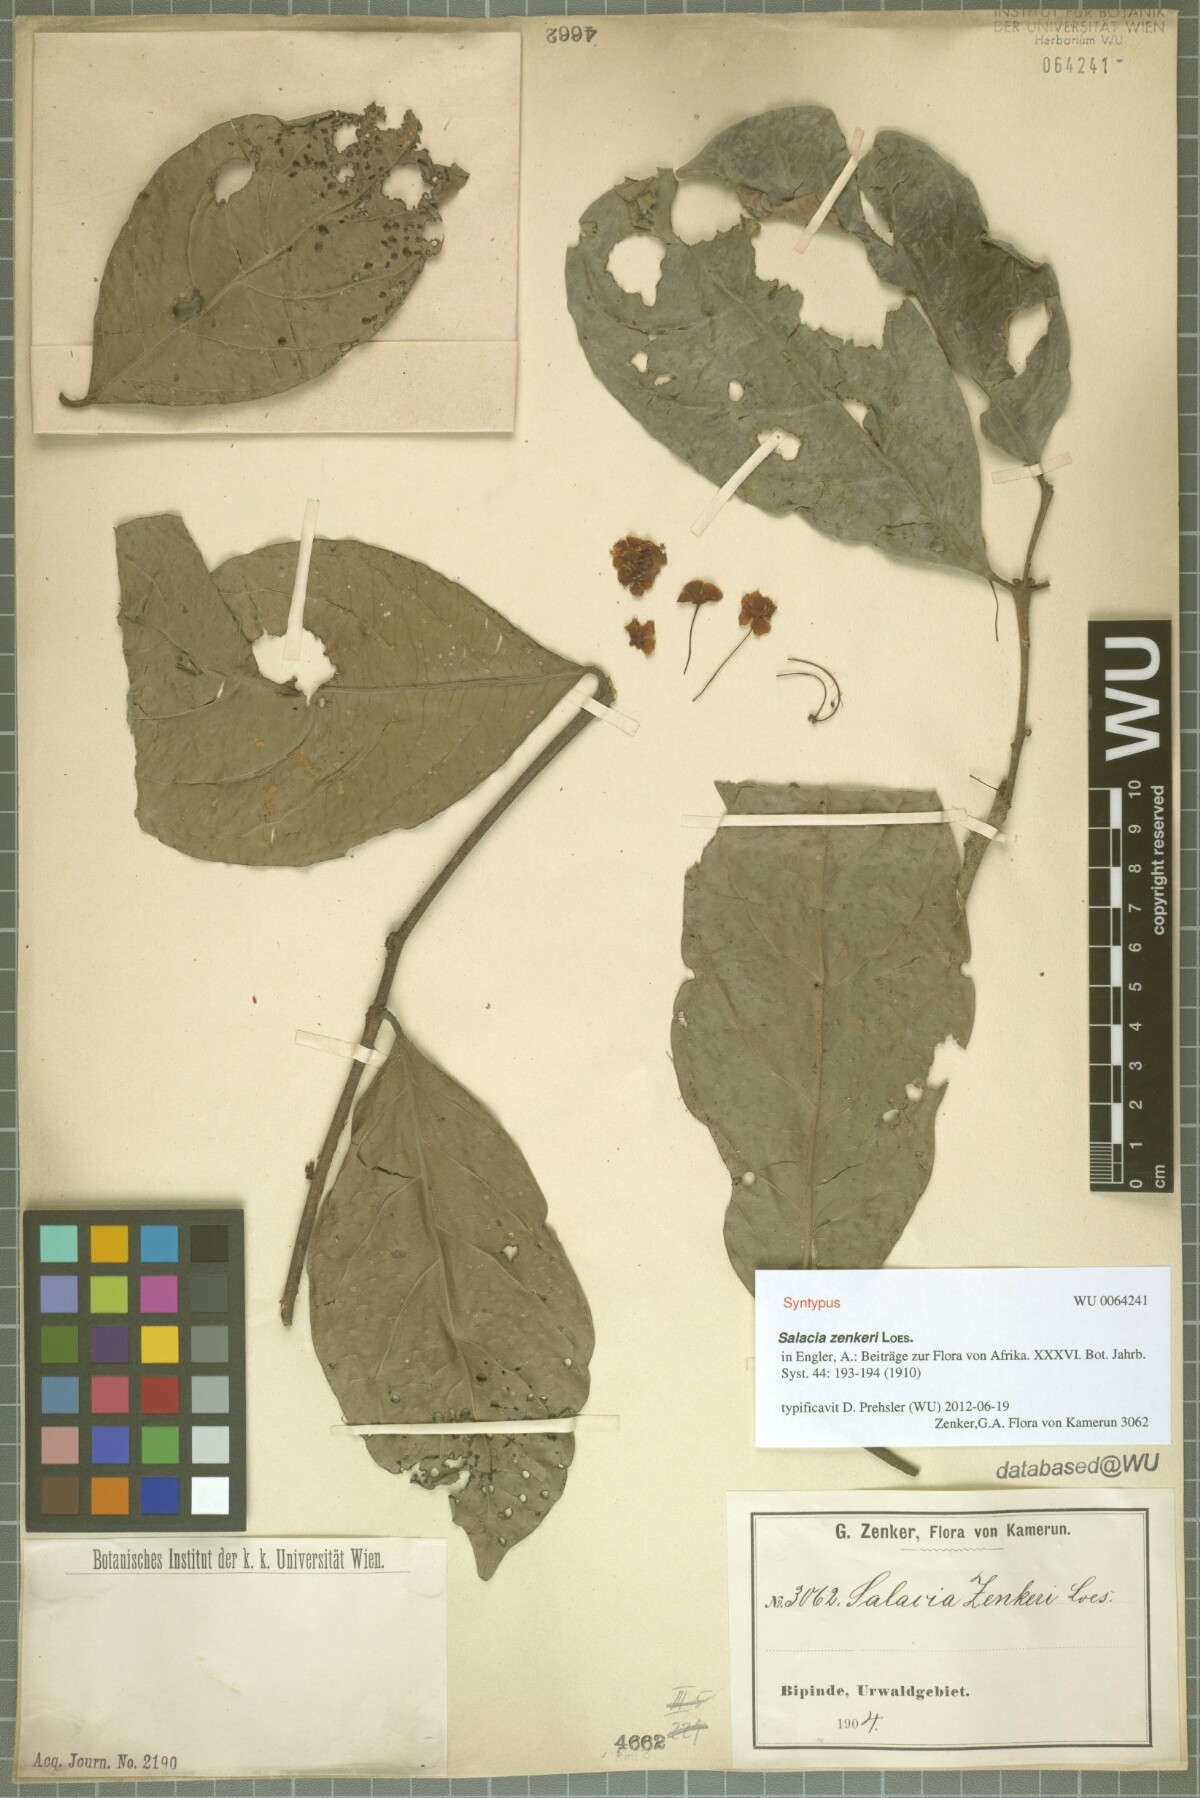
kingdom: Plantae
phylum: Tracheophyta
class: Magnoliopsida
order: Celastrales
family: Celastraceae
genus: Salacia
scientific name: Salacia zenkeri
